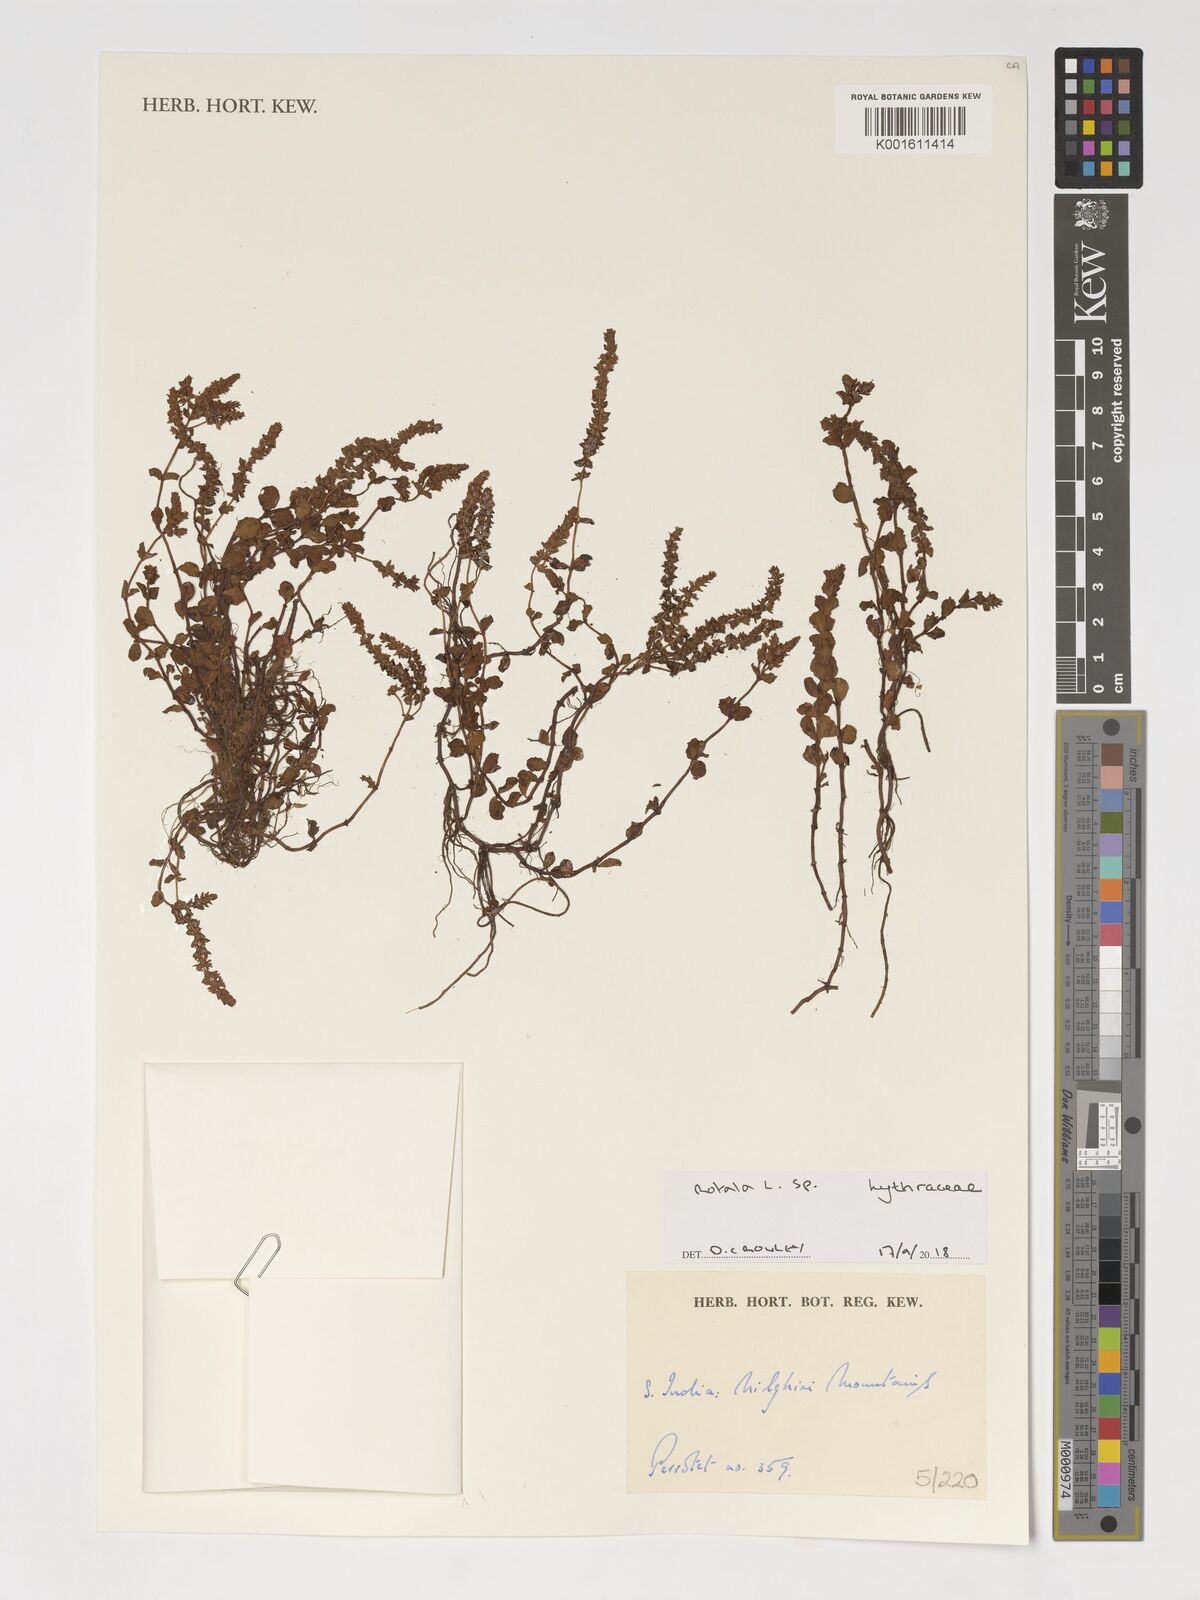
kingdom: Plantae
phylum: Tracheophyta
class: Magnoliopsida
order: Myrtales
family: Lythraceae
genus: Rotala
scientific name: Rotala
